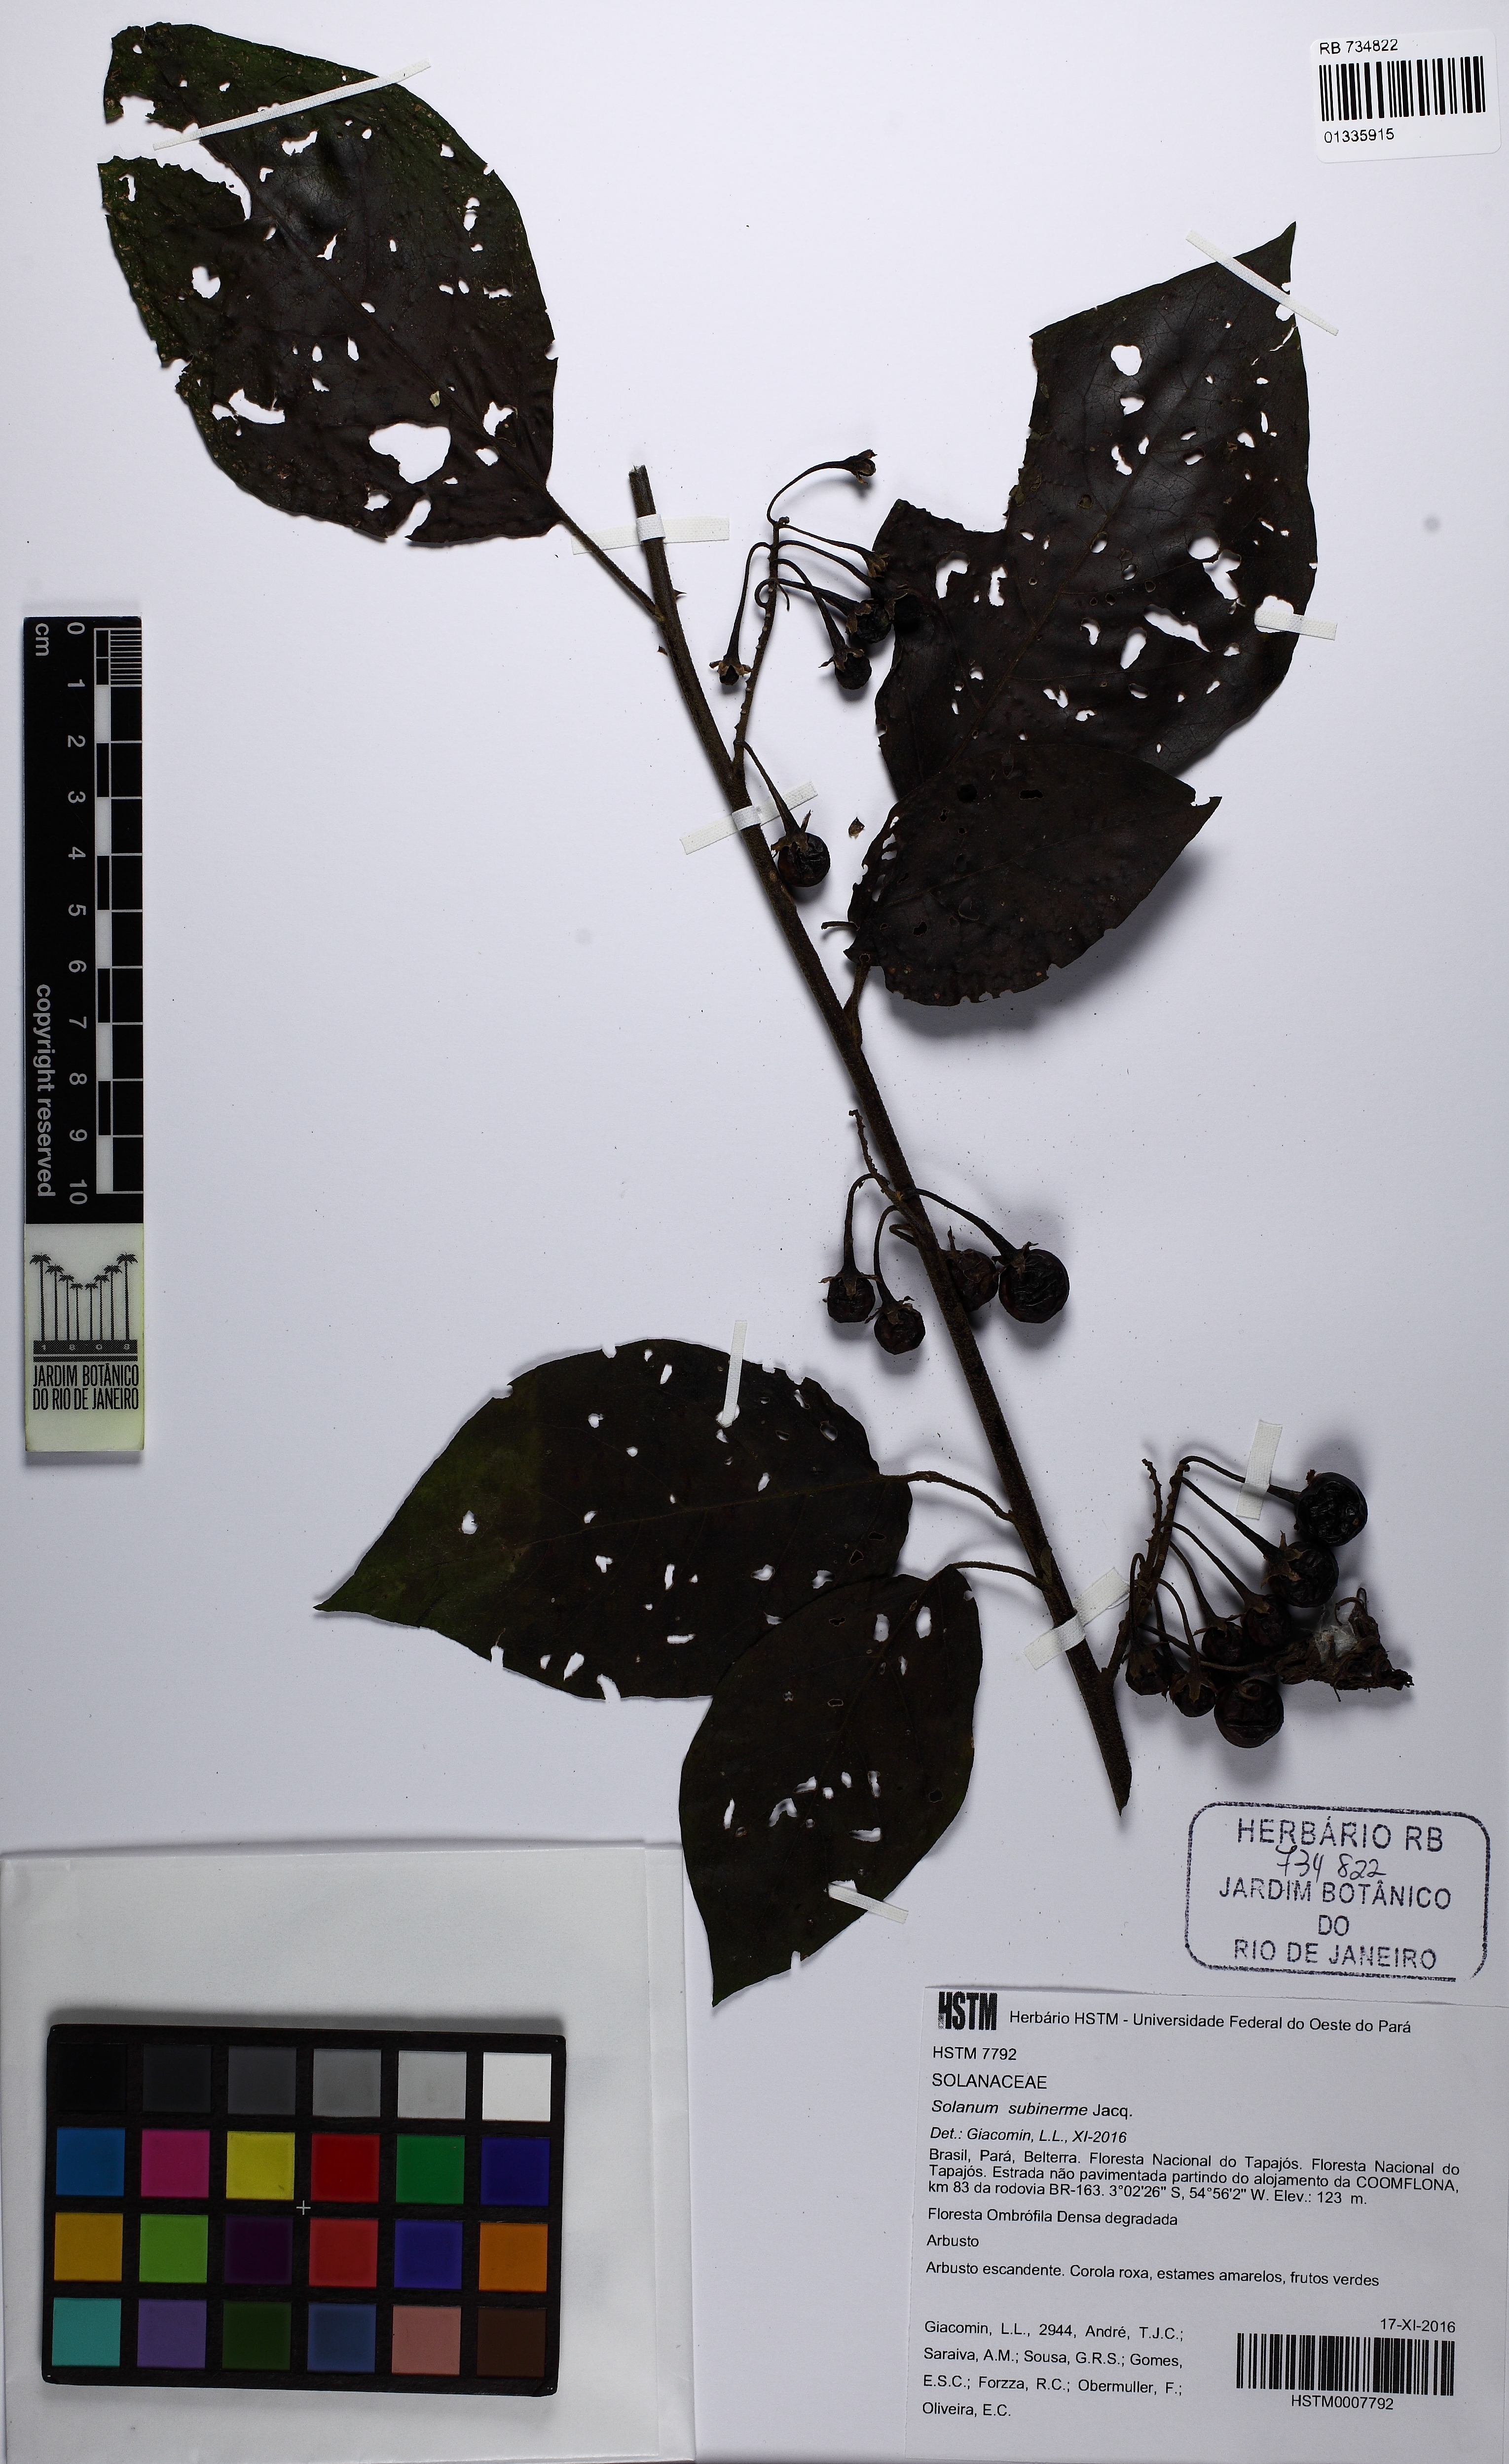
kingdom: Plantae
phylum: Tracheophyta
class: Magnoliopsida
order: Solanales
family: Solanaceae
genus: Solanum
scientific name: Solanum subinerme
